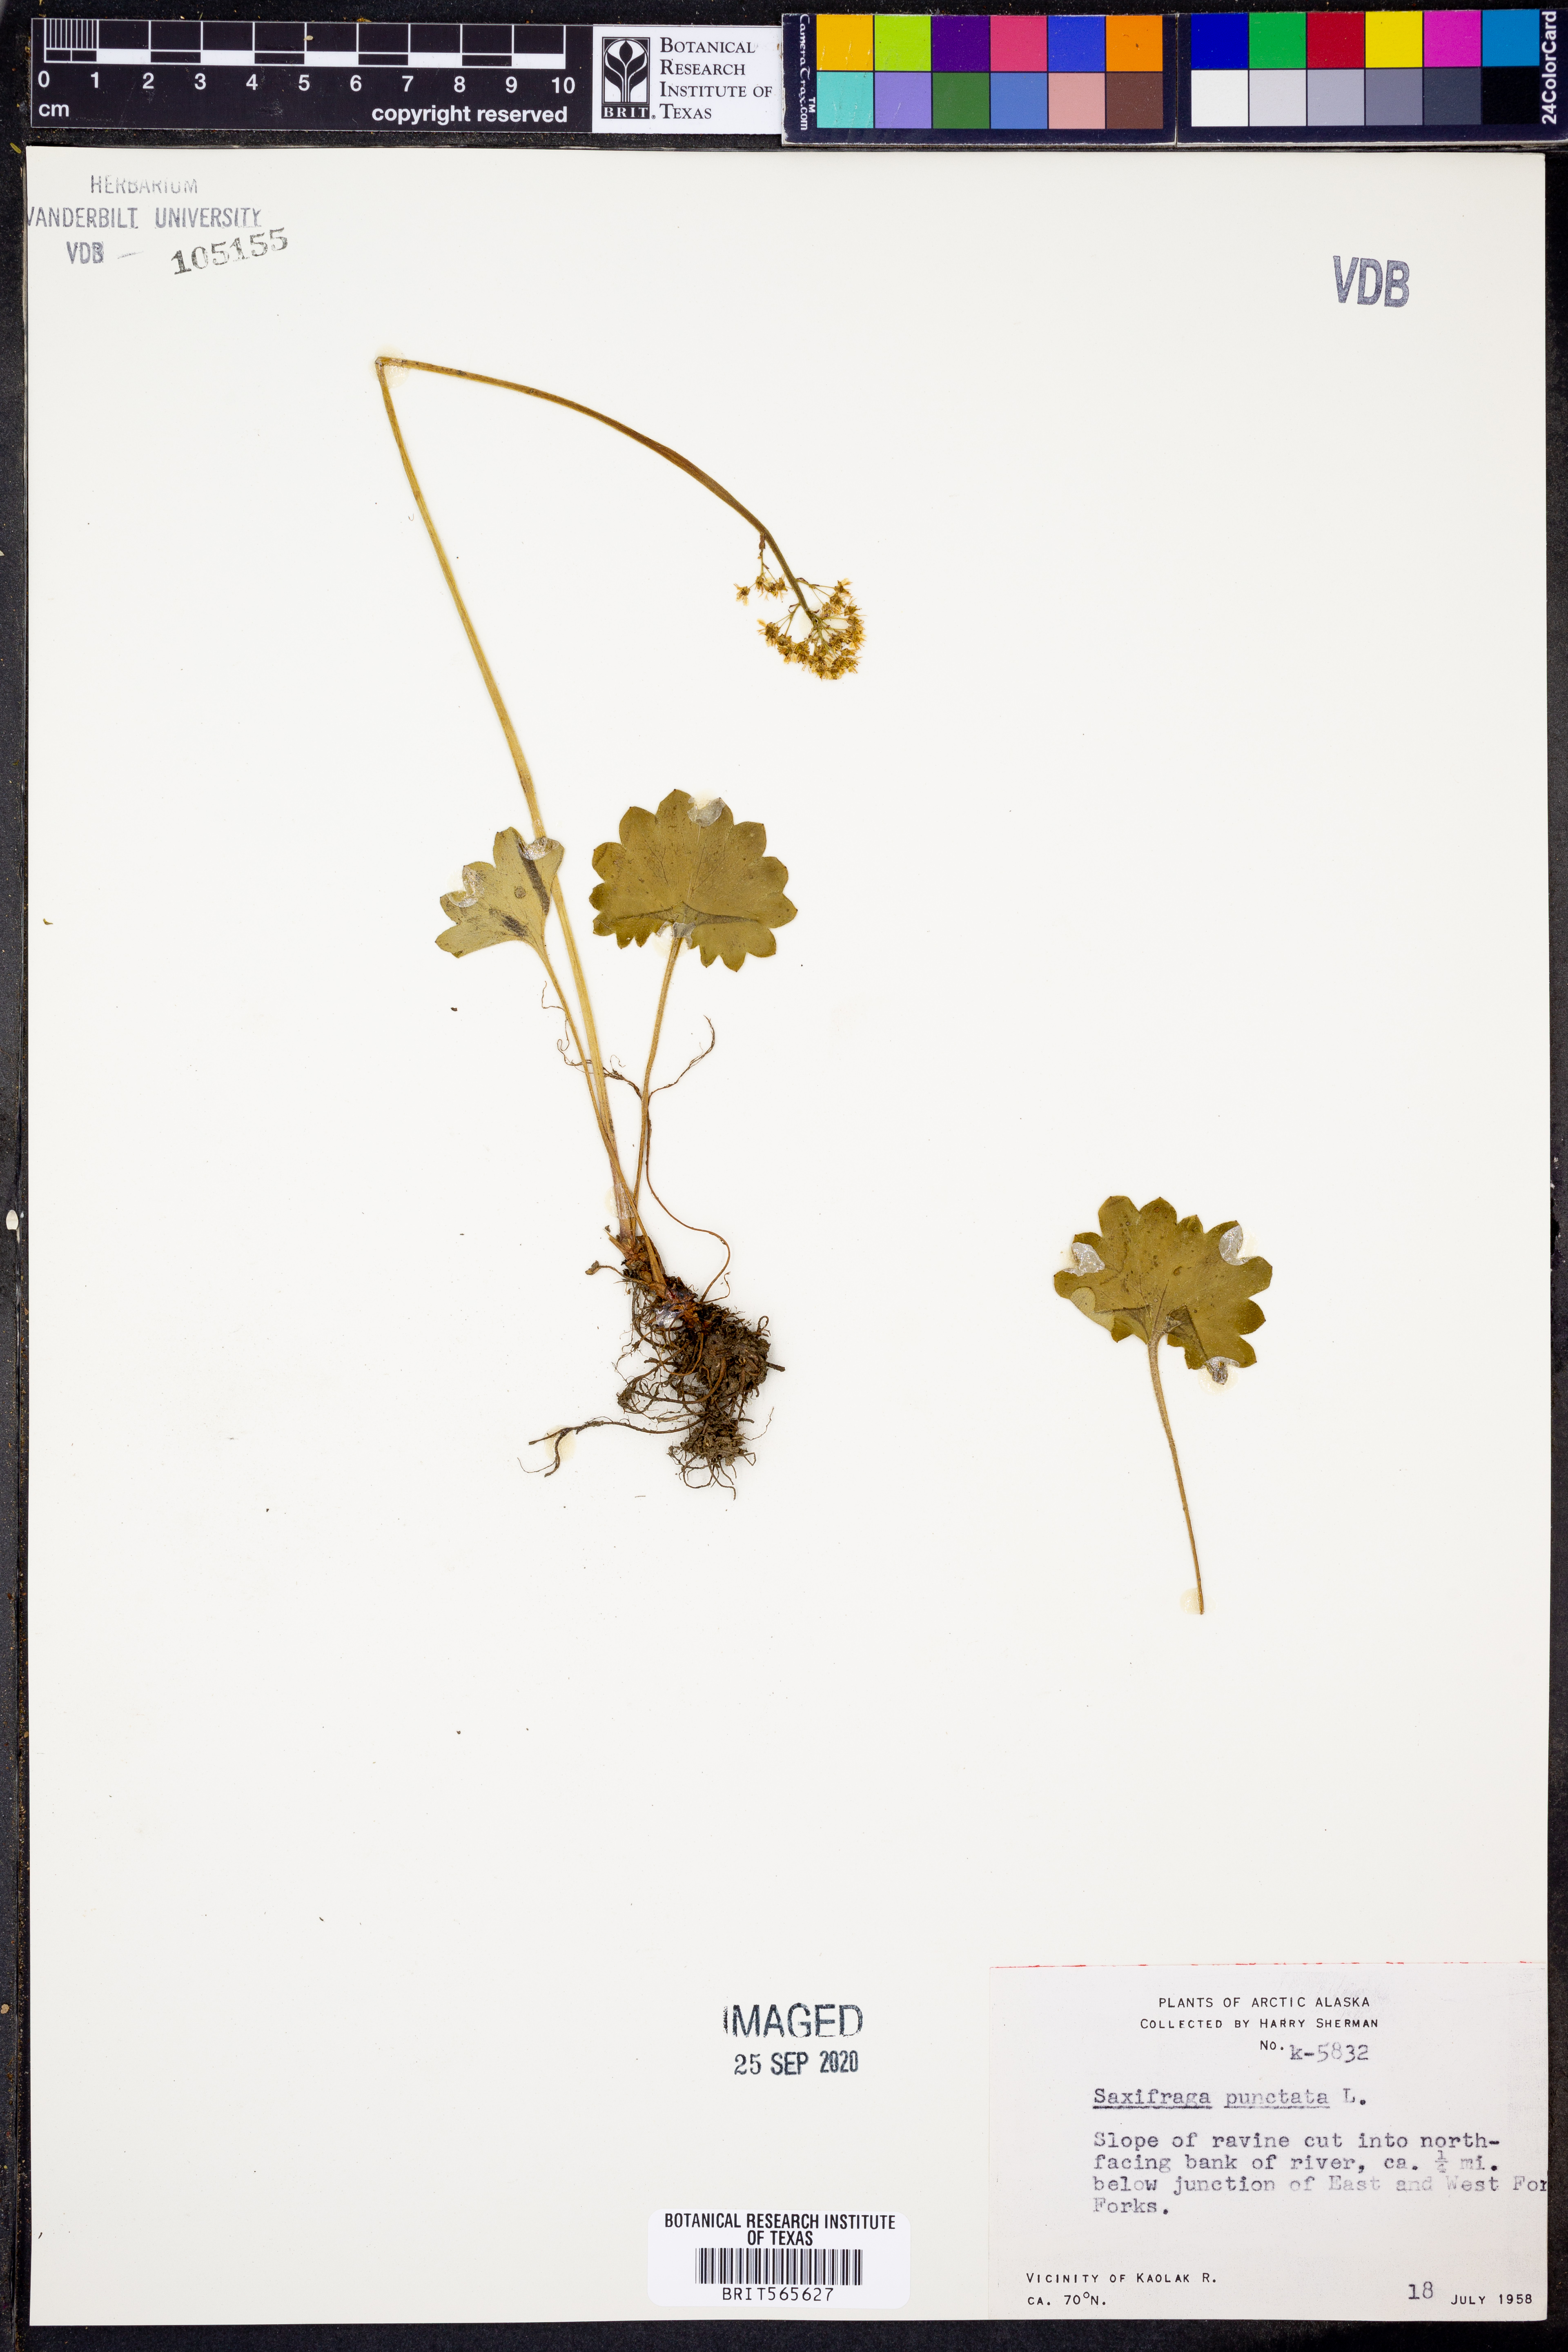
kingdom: Plantae
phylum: Tracheophyta
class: Magnoliopsida
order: Saxifragales
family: Saxifragaceae
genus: Saxifraga
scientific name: Saxifraga punctata
